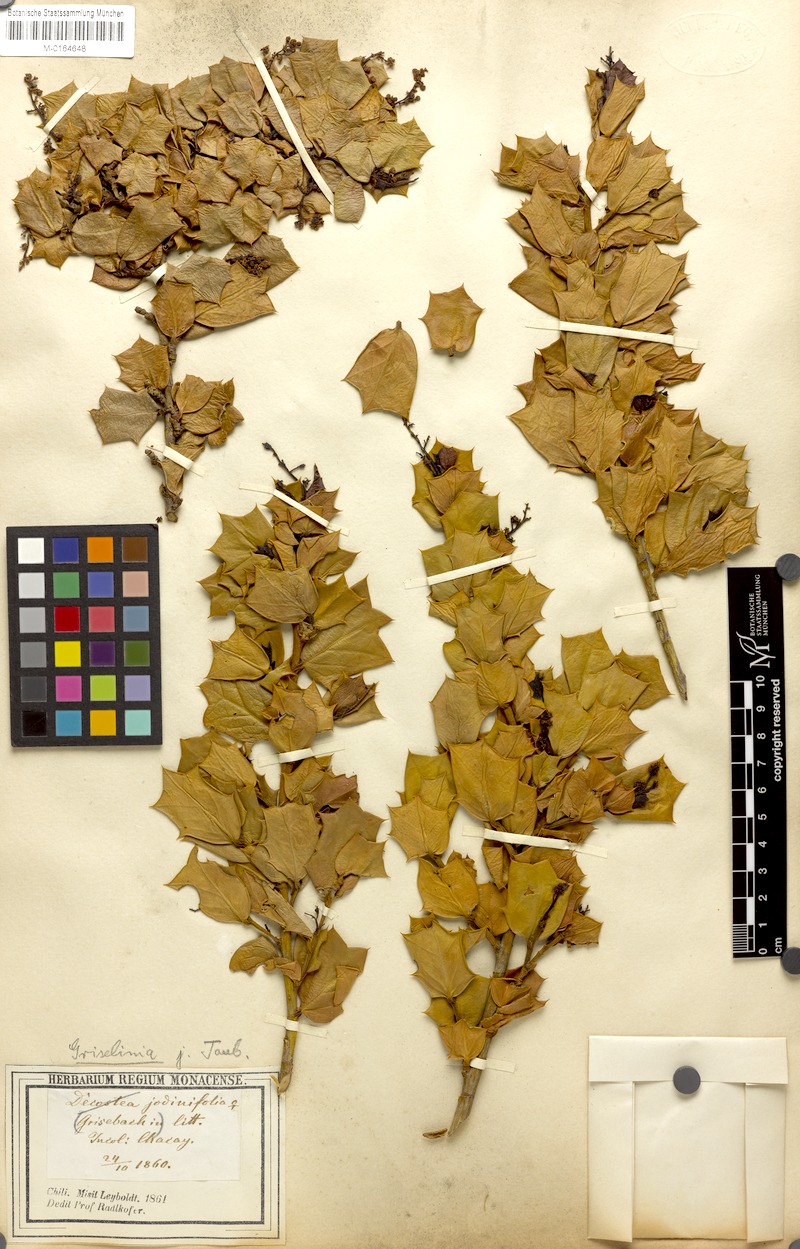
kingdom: Plantae
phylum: Tracheophyta
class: Magnoliopsida
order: Apiales
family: Griseliniaceae
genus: Griselinia
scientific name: Griselinia jodinifolia
